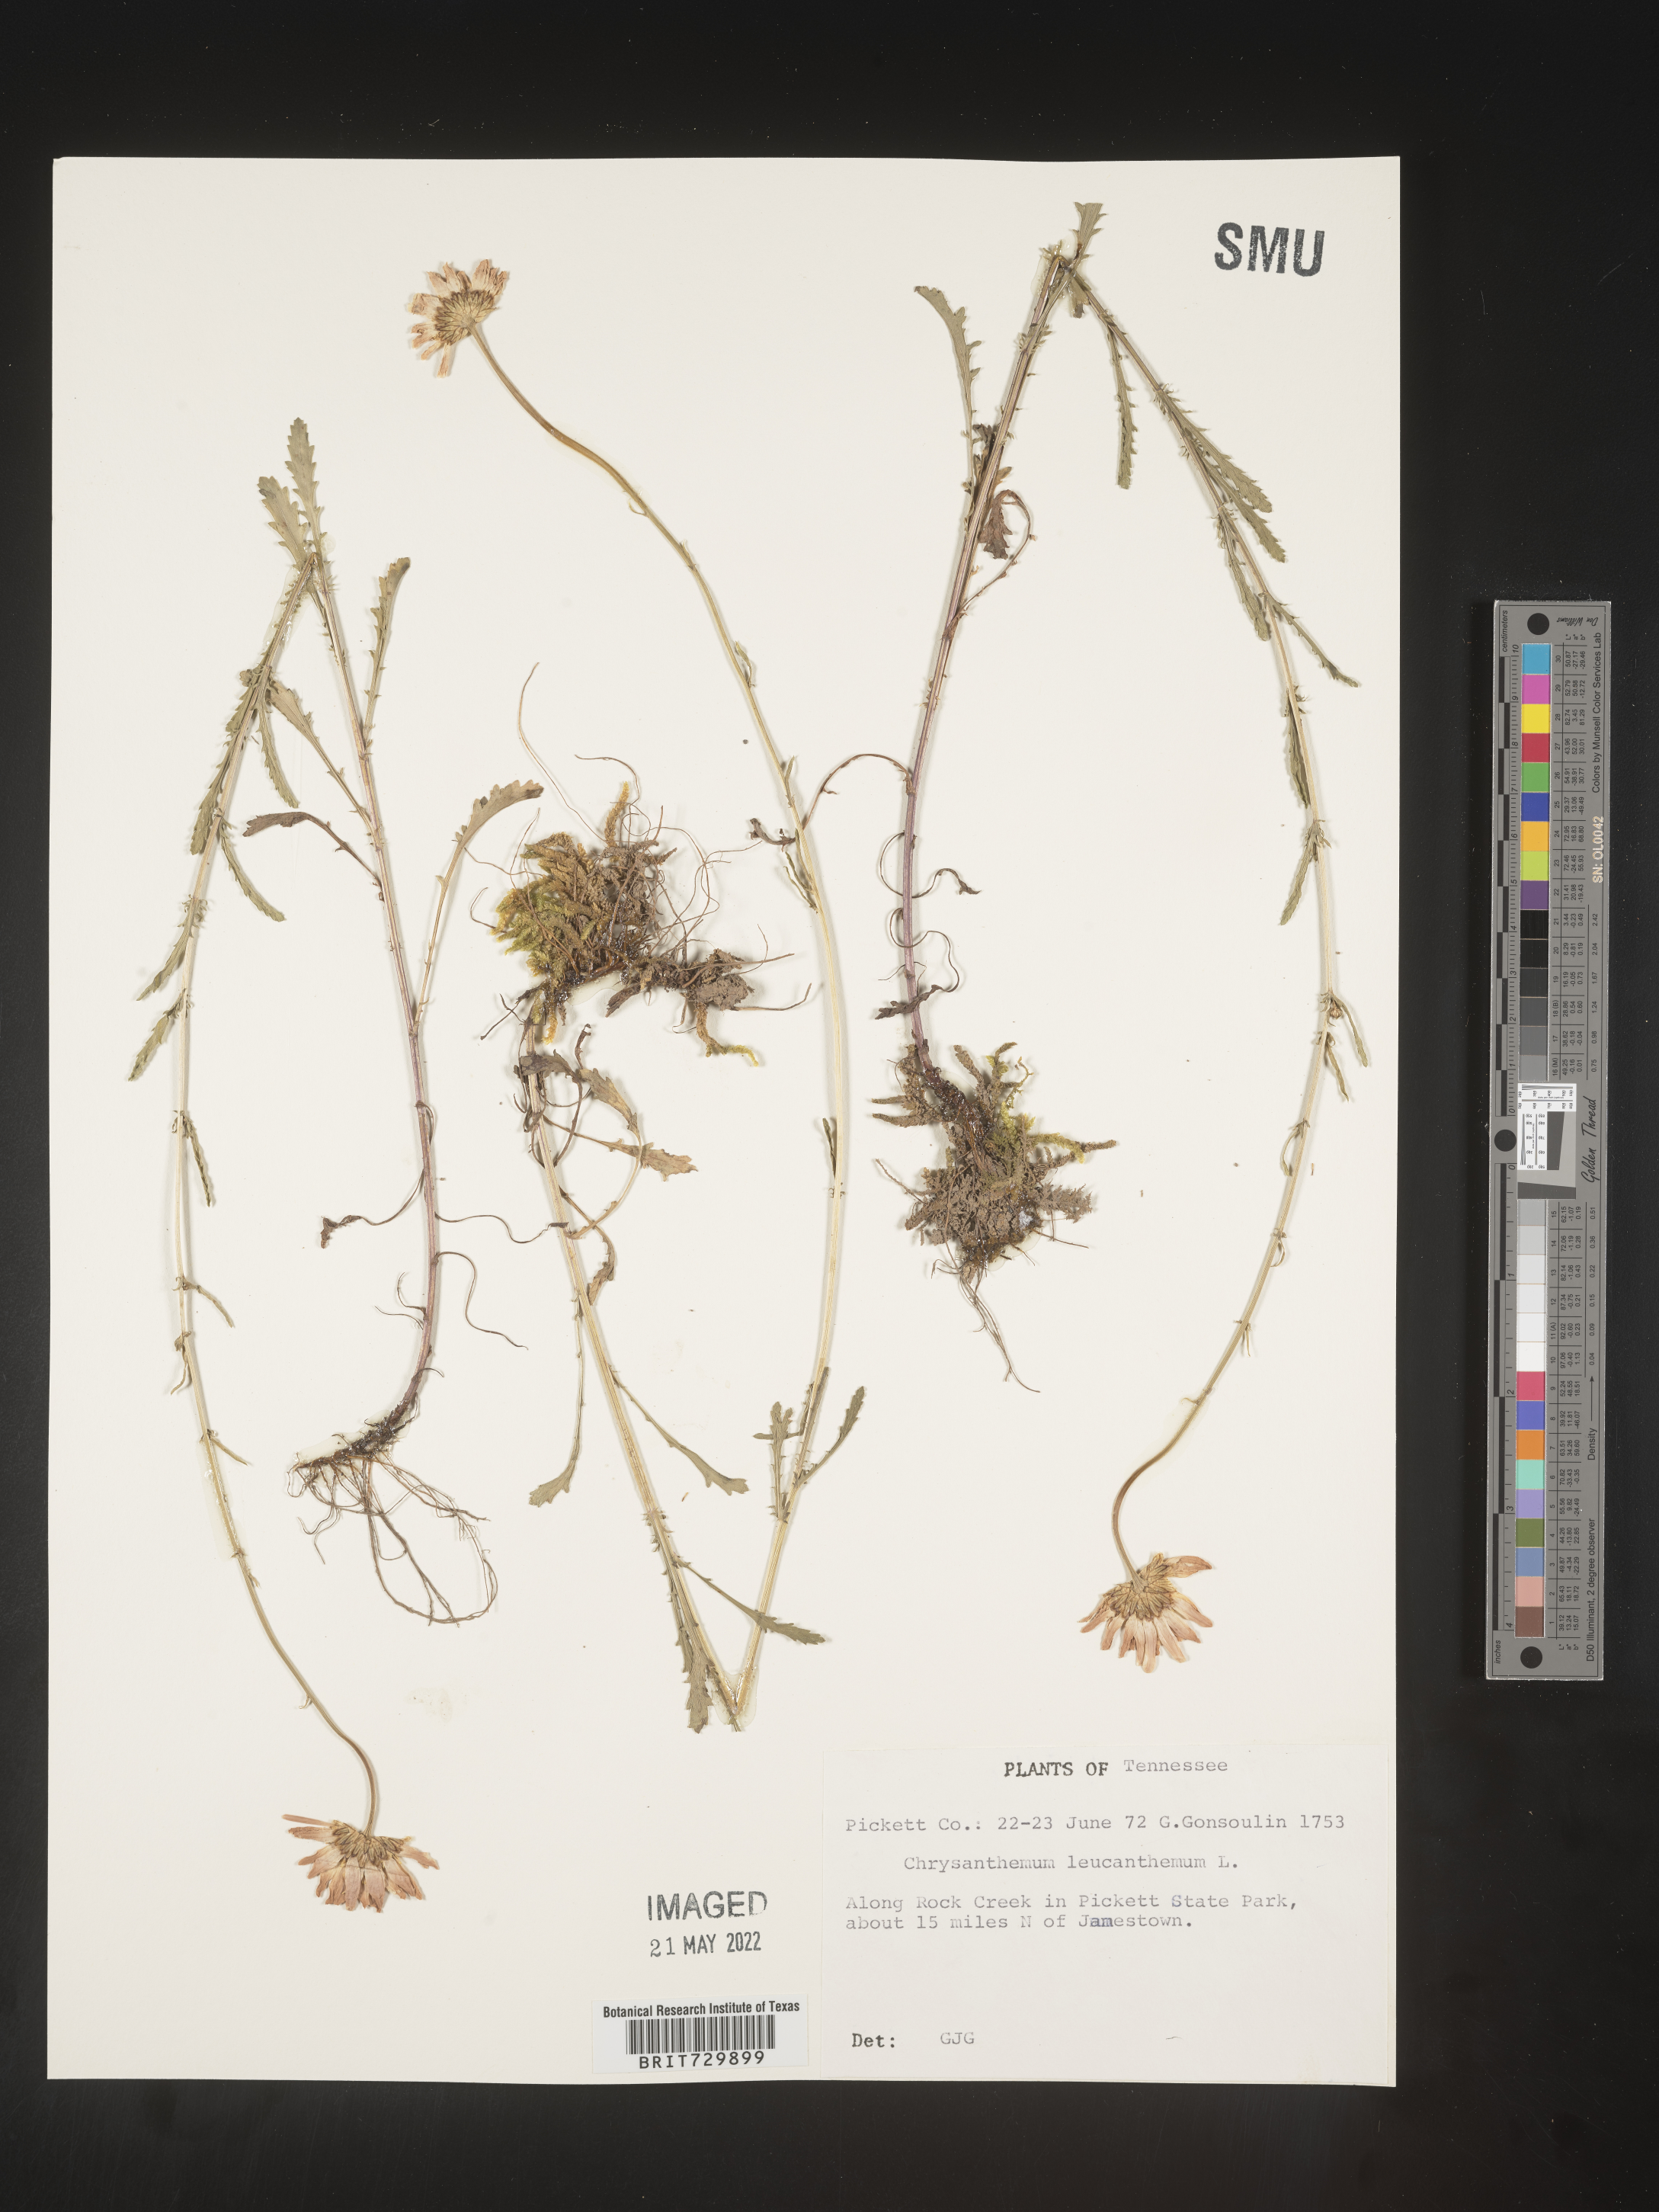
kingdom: Plantae
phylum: Tracheophyta
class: Magnoliopsida
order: Asterales
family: Asteraceae
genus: Leucanthemum
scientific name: Leucanthemum vulgare
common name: Oxeye daisy
